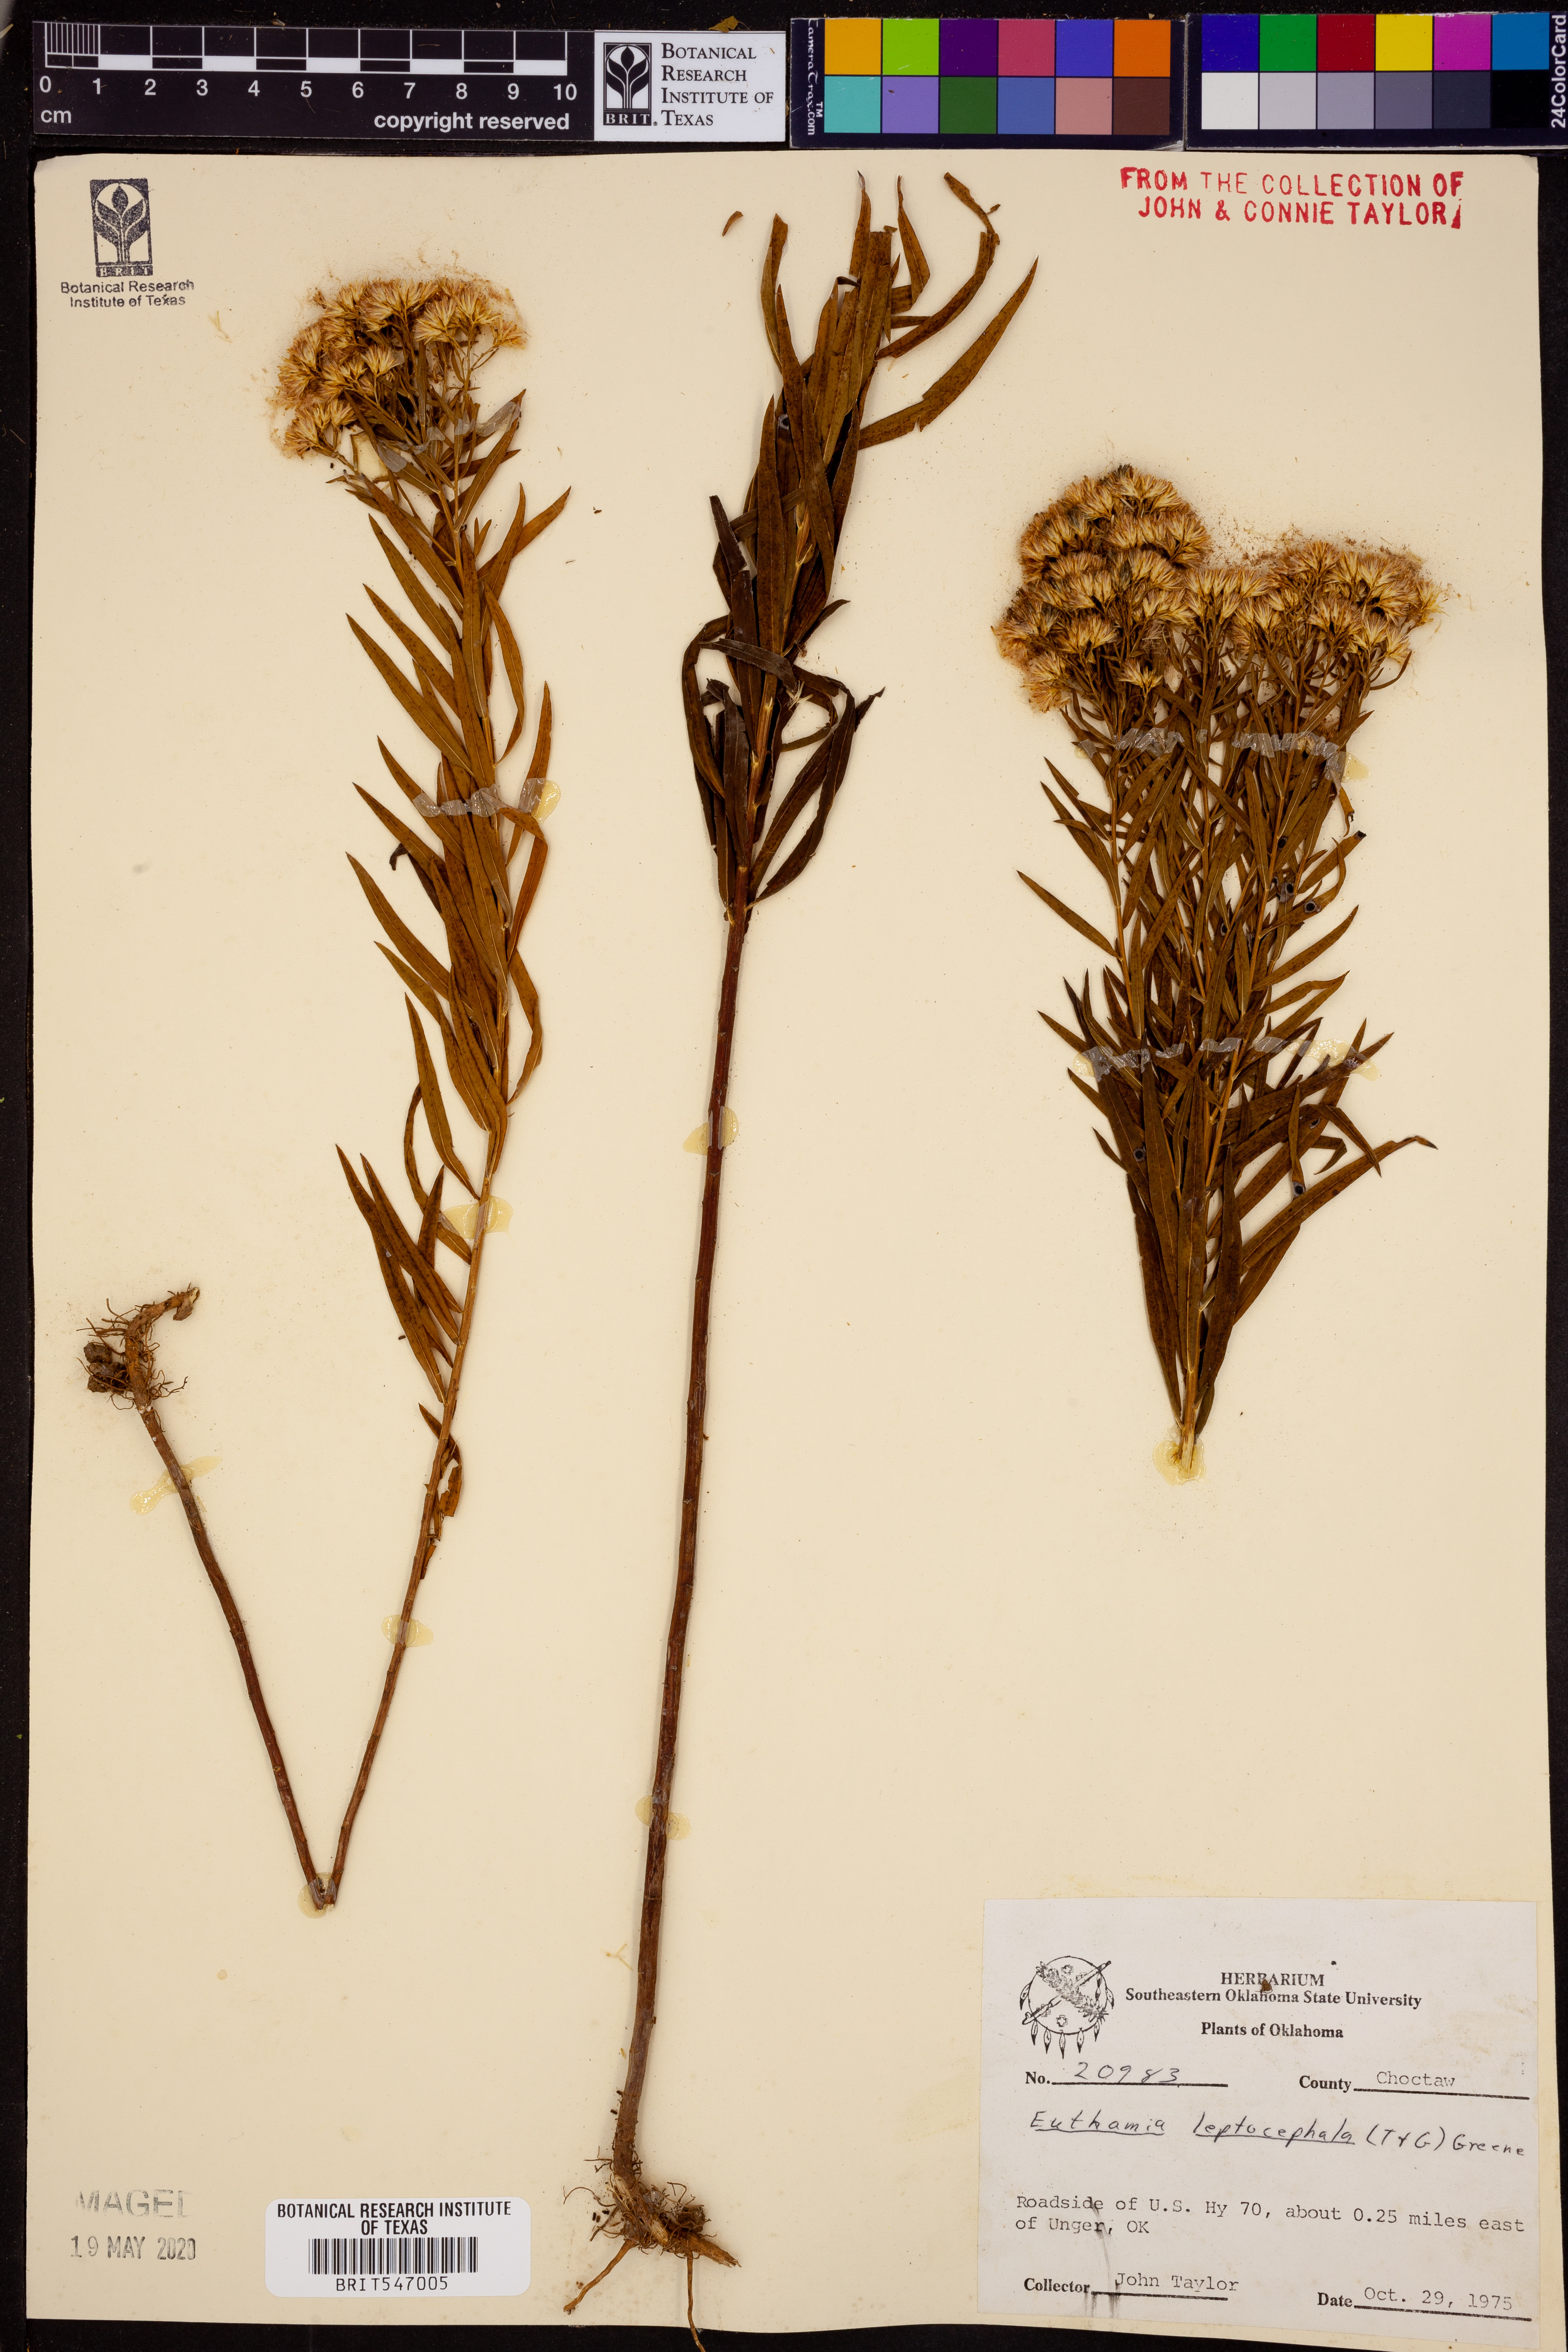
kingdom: Plantae
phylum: Tracheophyta
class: Magnoliopsida
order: Asterales
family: Asteraceae
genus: Euthamia
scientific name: Euthamia leptocephala
